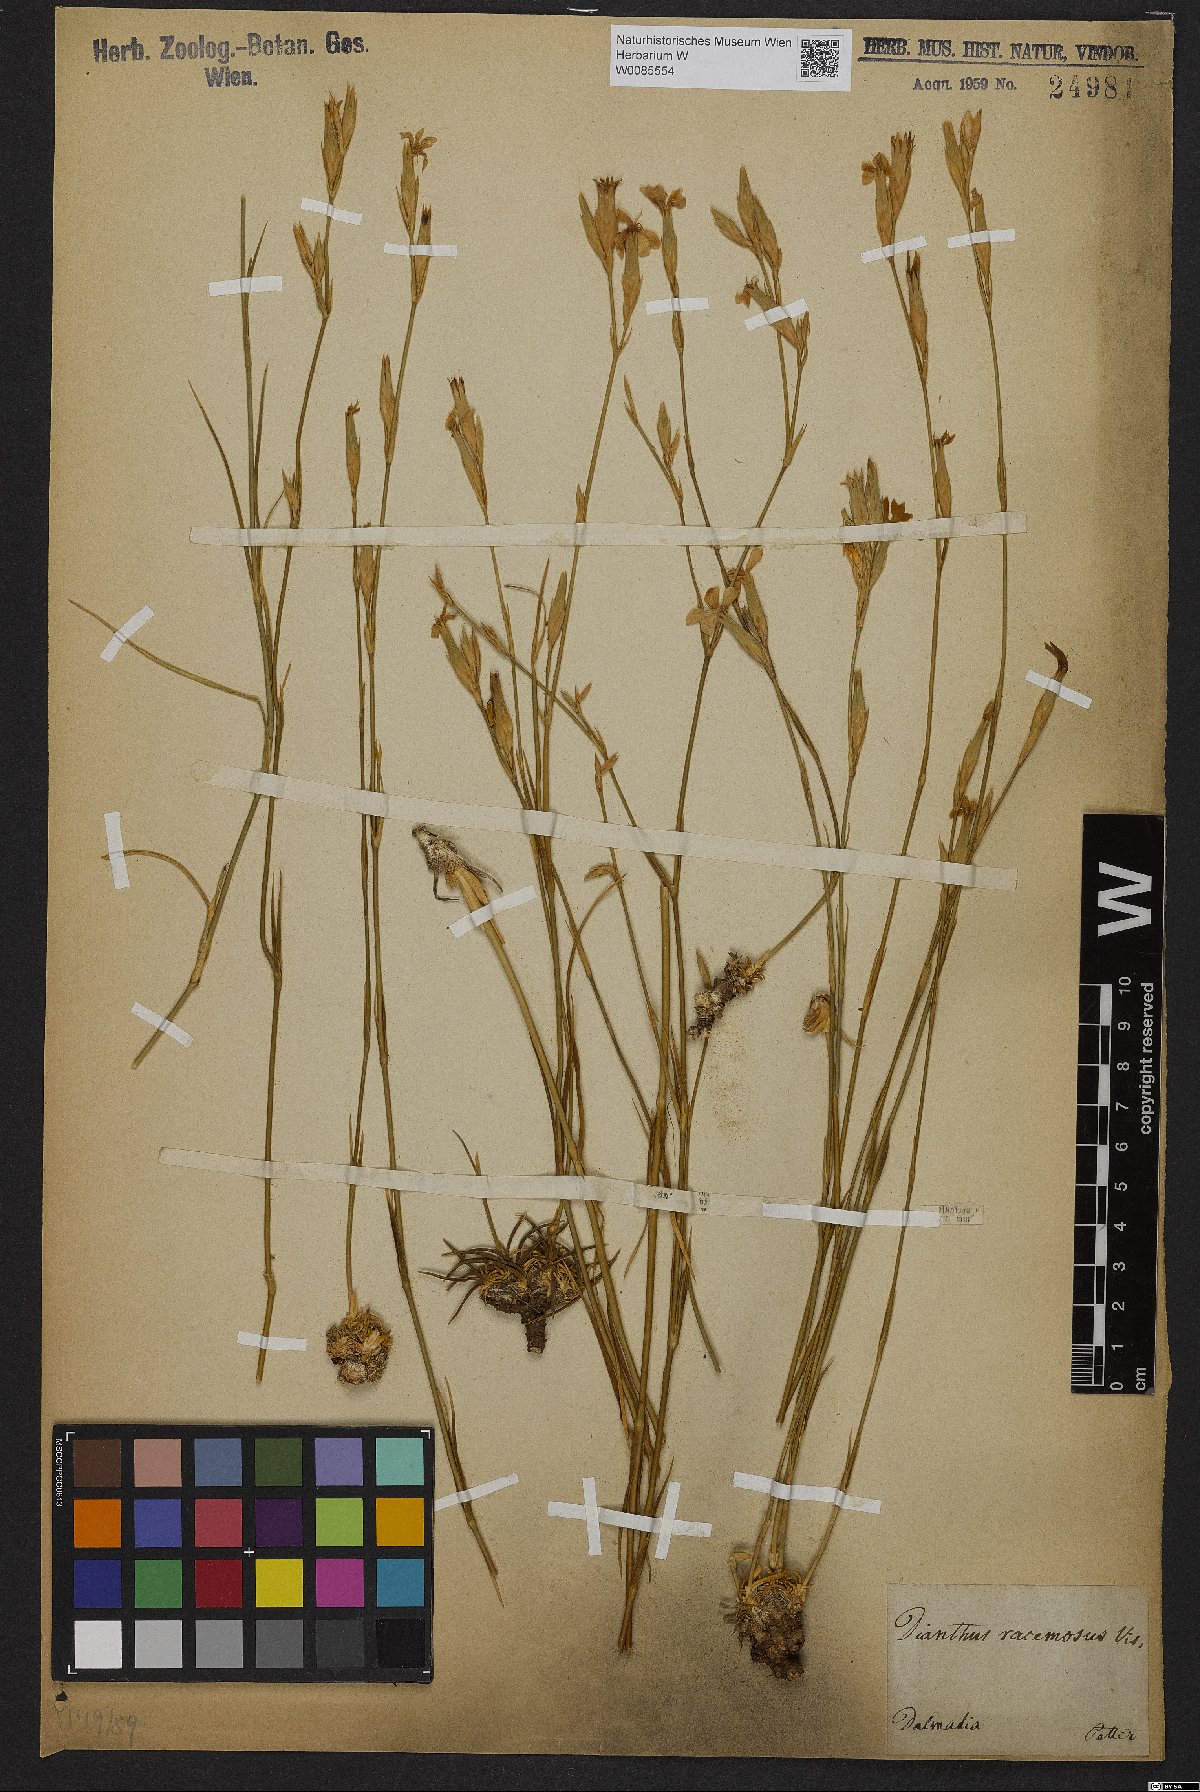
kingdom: Plantae
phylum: Tracheophyta
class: Magnoliopsida
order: Caryophyllales
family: Caryophyllaceae
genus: Dianthus
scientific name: Dianthus ciliatus
